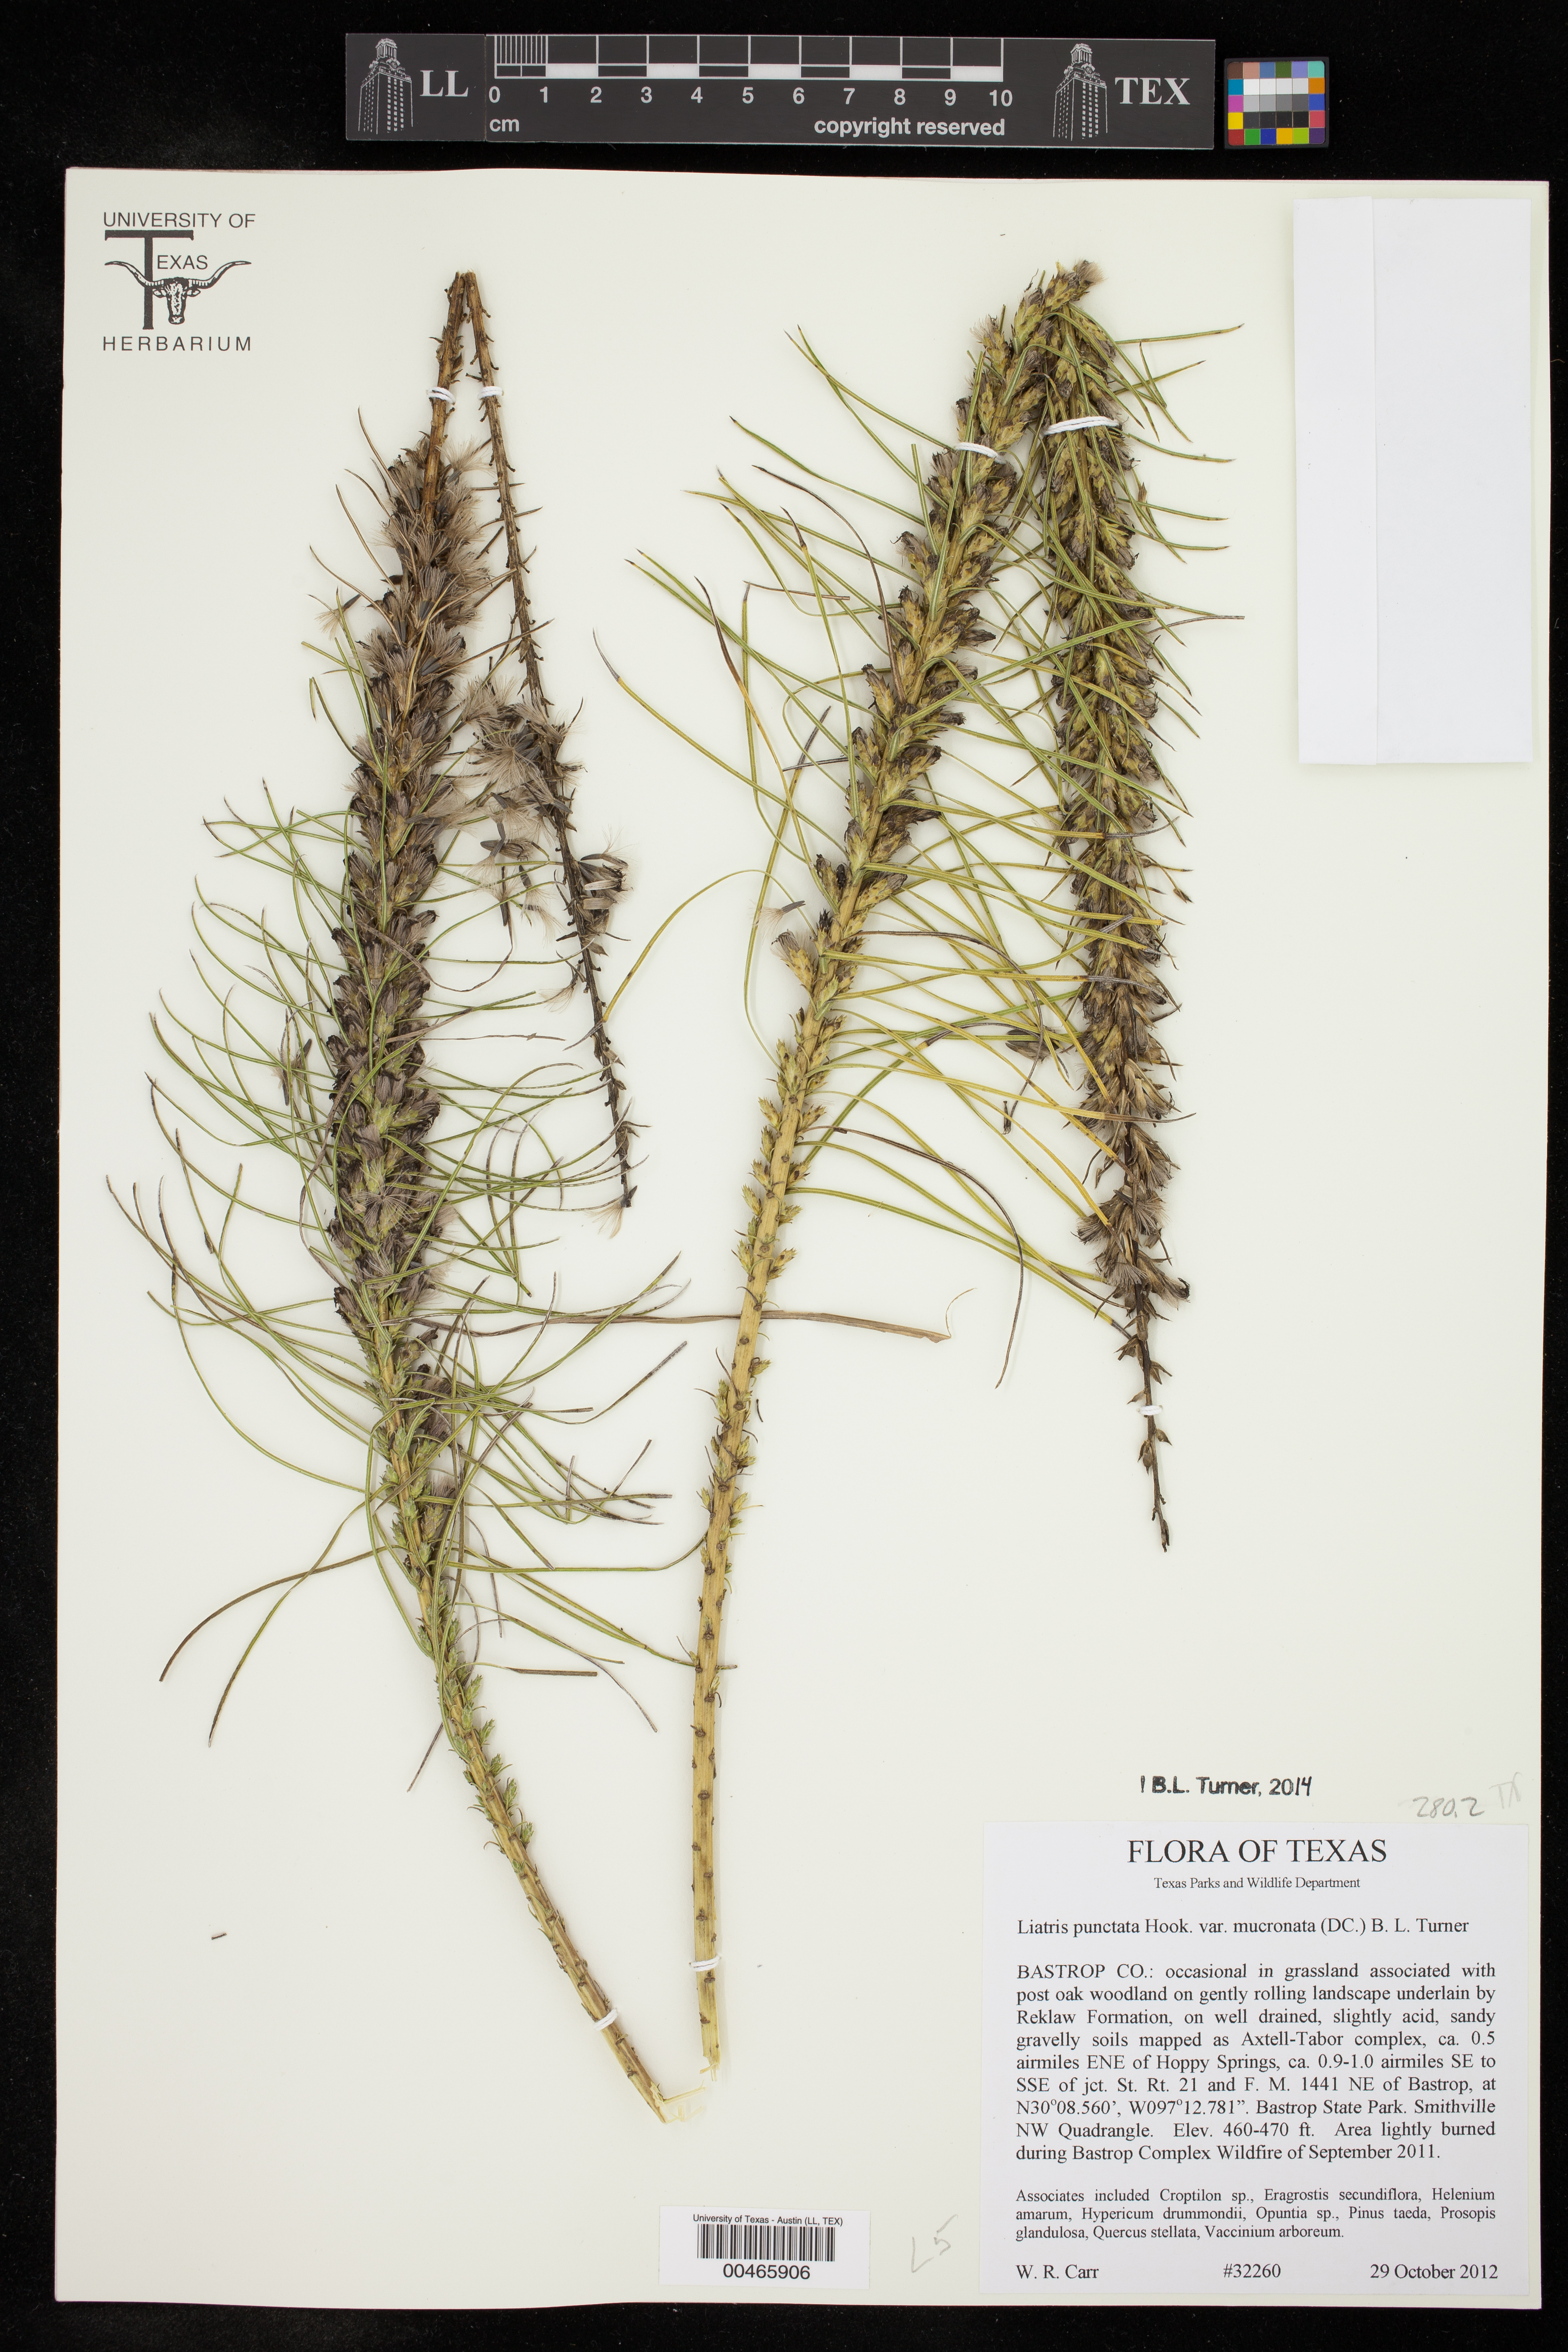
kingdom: Plantae
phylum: Tracheophyta
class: Magnoliopsida
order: Asterales
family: Asteraceae
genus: Liatris
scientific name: Liatris punctata
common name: Dotted gayfeather
